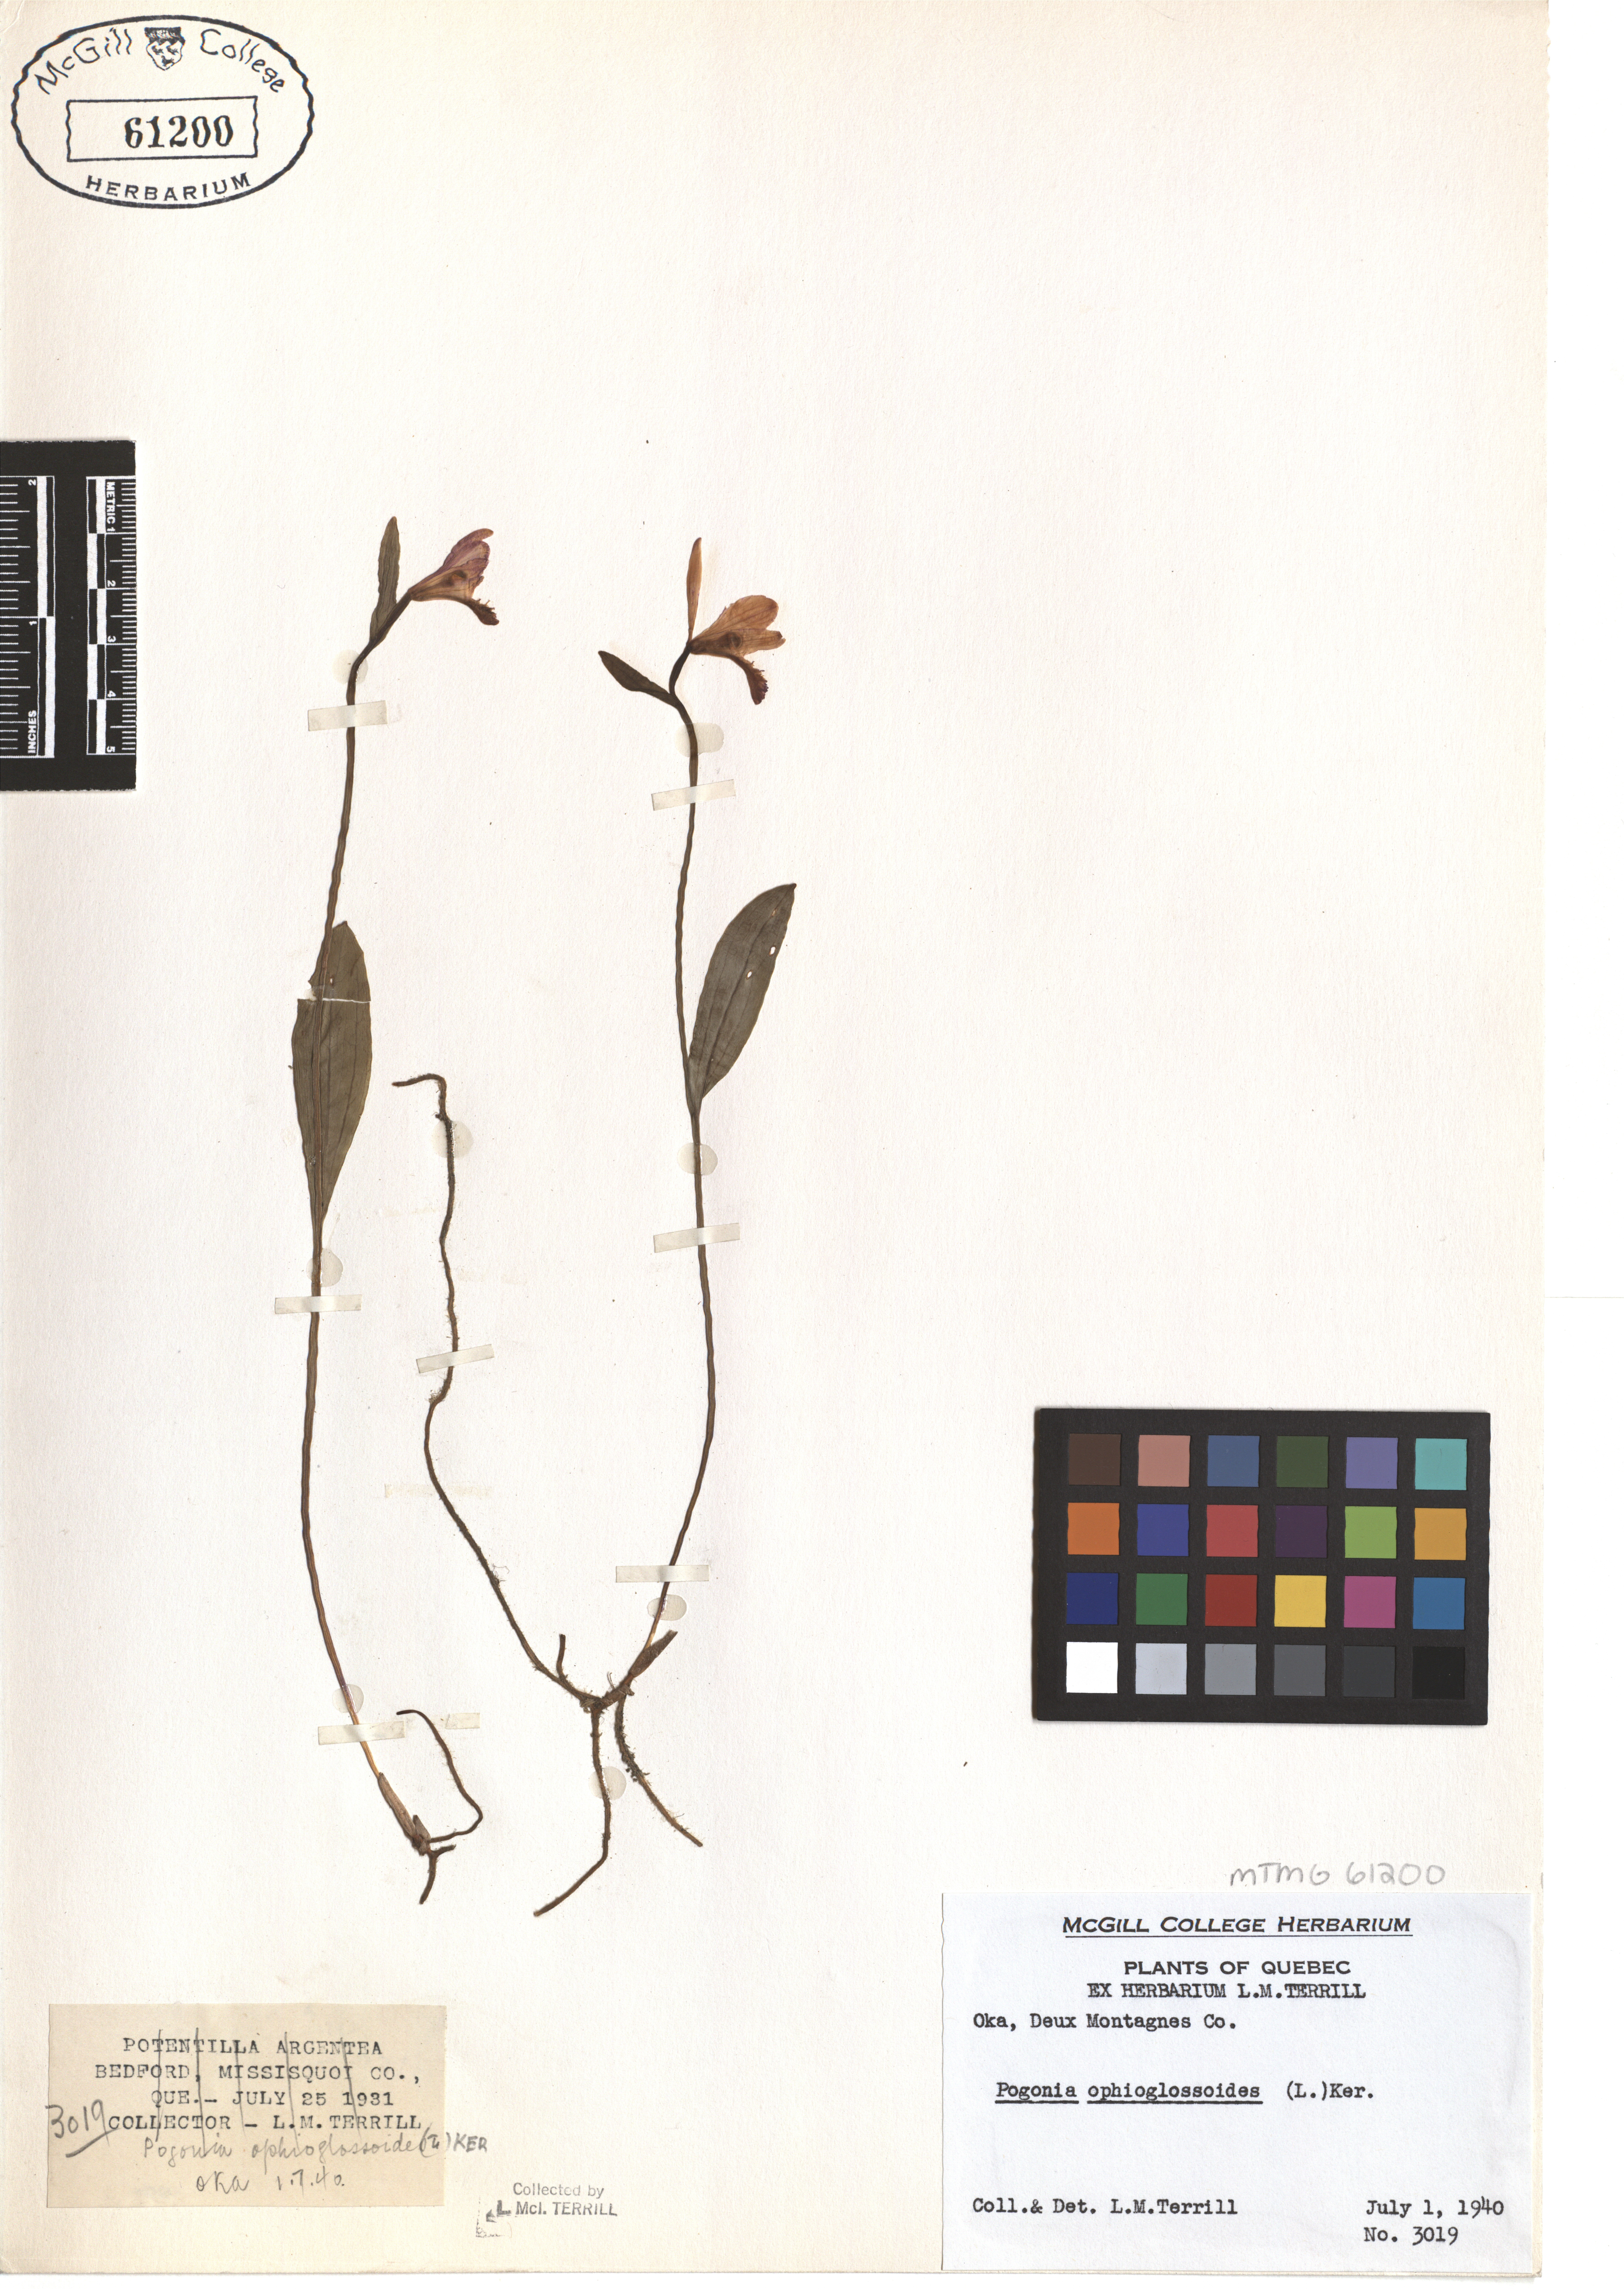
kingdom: Plantae
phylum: Tracheophyta
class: Liliopsida
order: Asparagales
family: Orchidaceae
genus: Pogonia
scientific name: Pogonia ophioglossoides
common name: Rose pogonia
